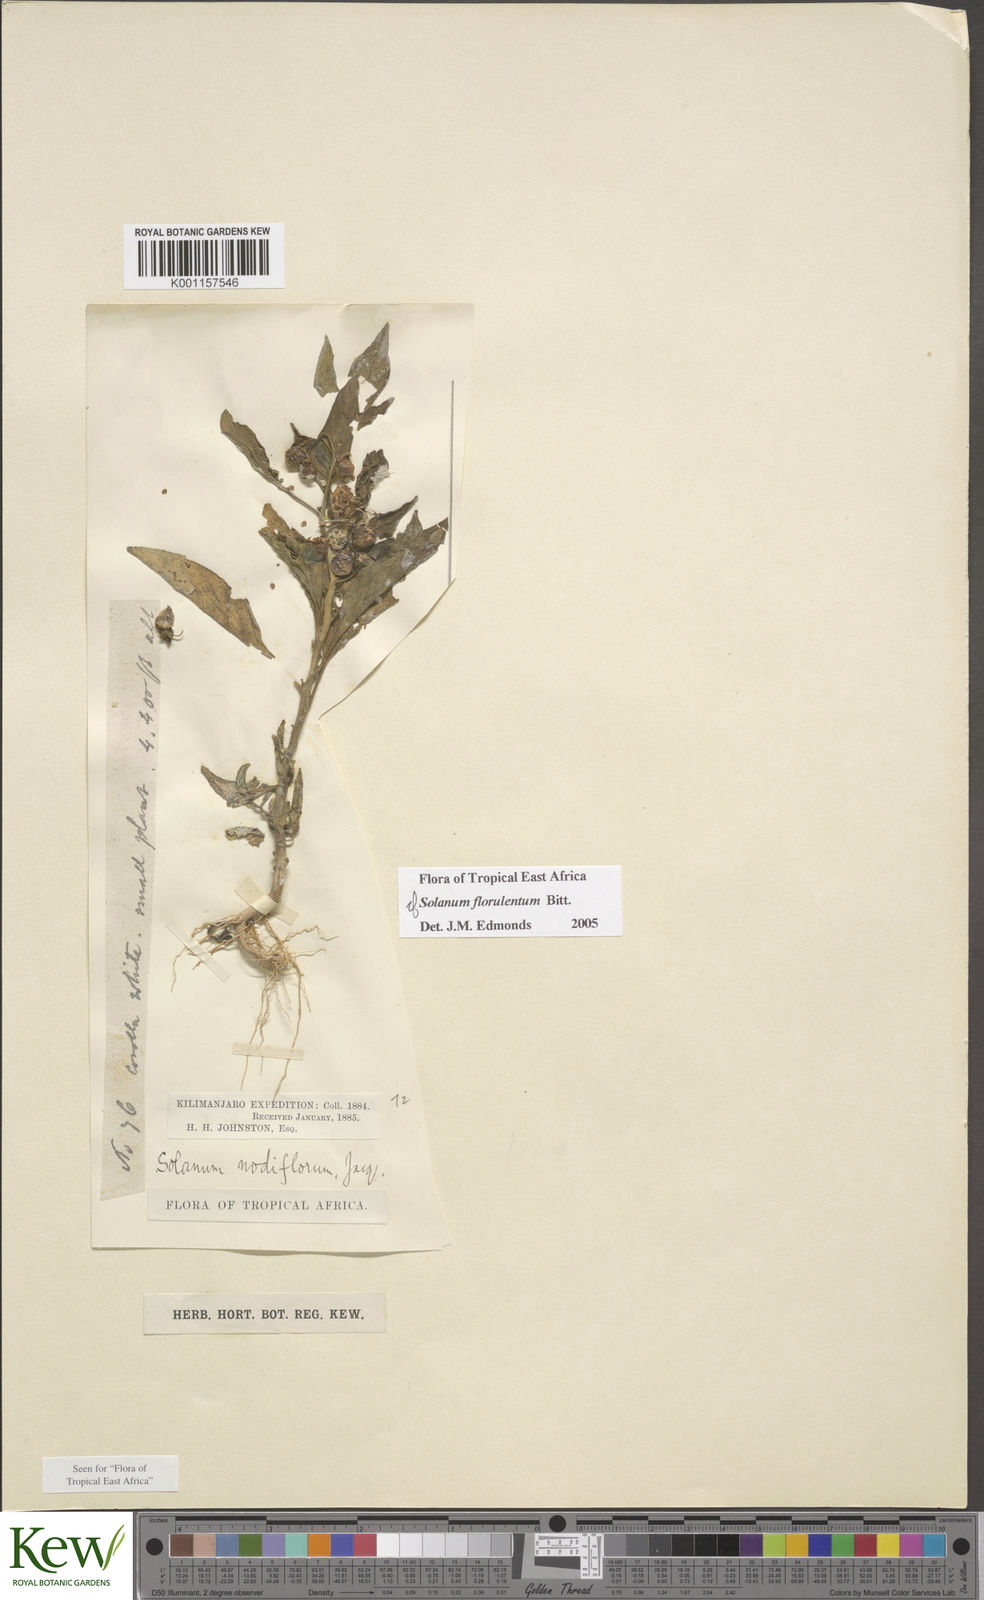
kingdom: Plantae
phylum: Tracheophyta
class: Magnoliopsida
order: Solanales
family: Solanaceae
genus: Solanum
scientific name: Solanum tarderemotum
